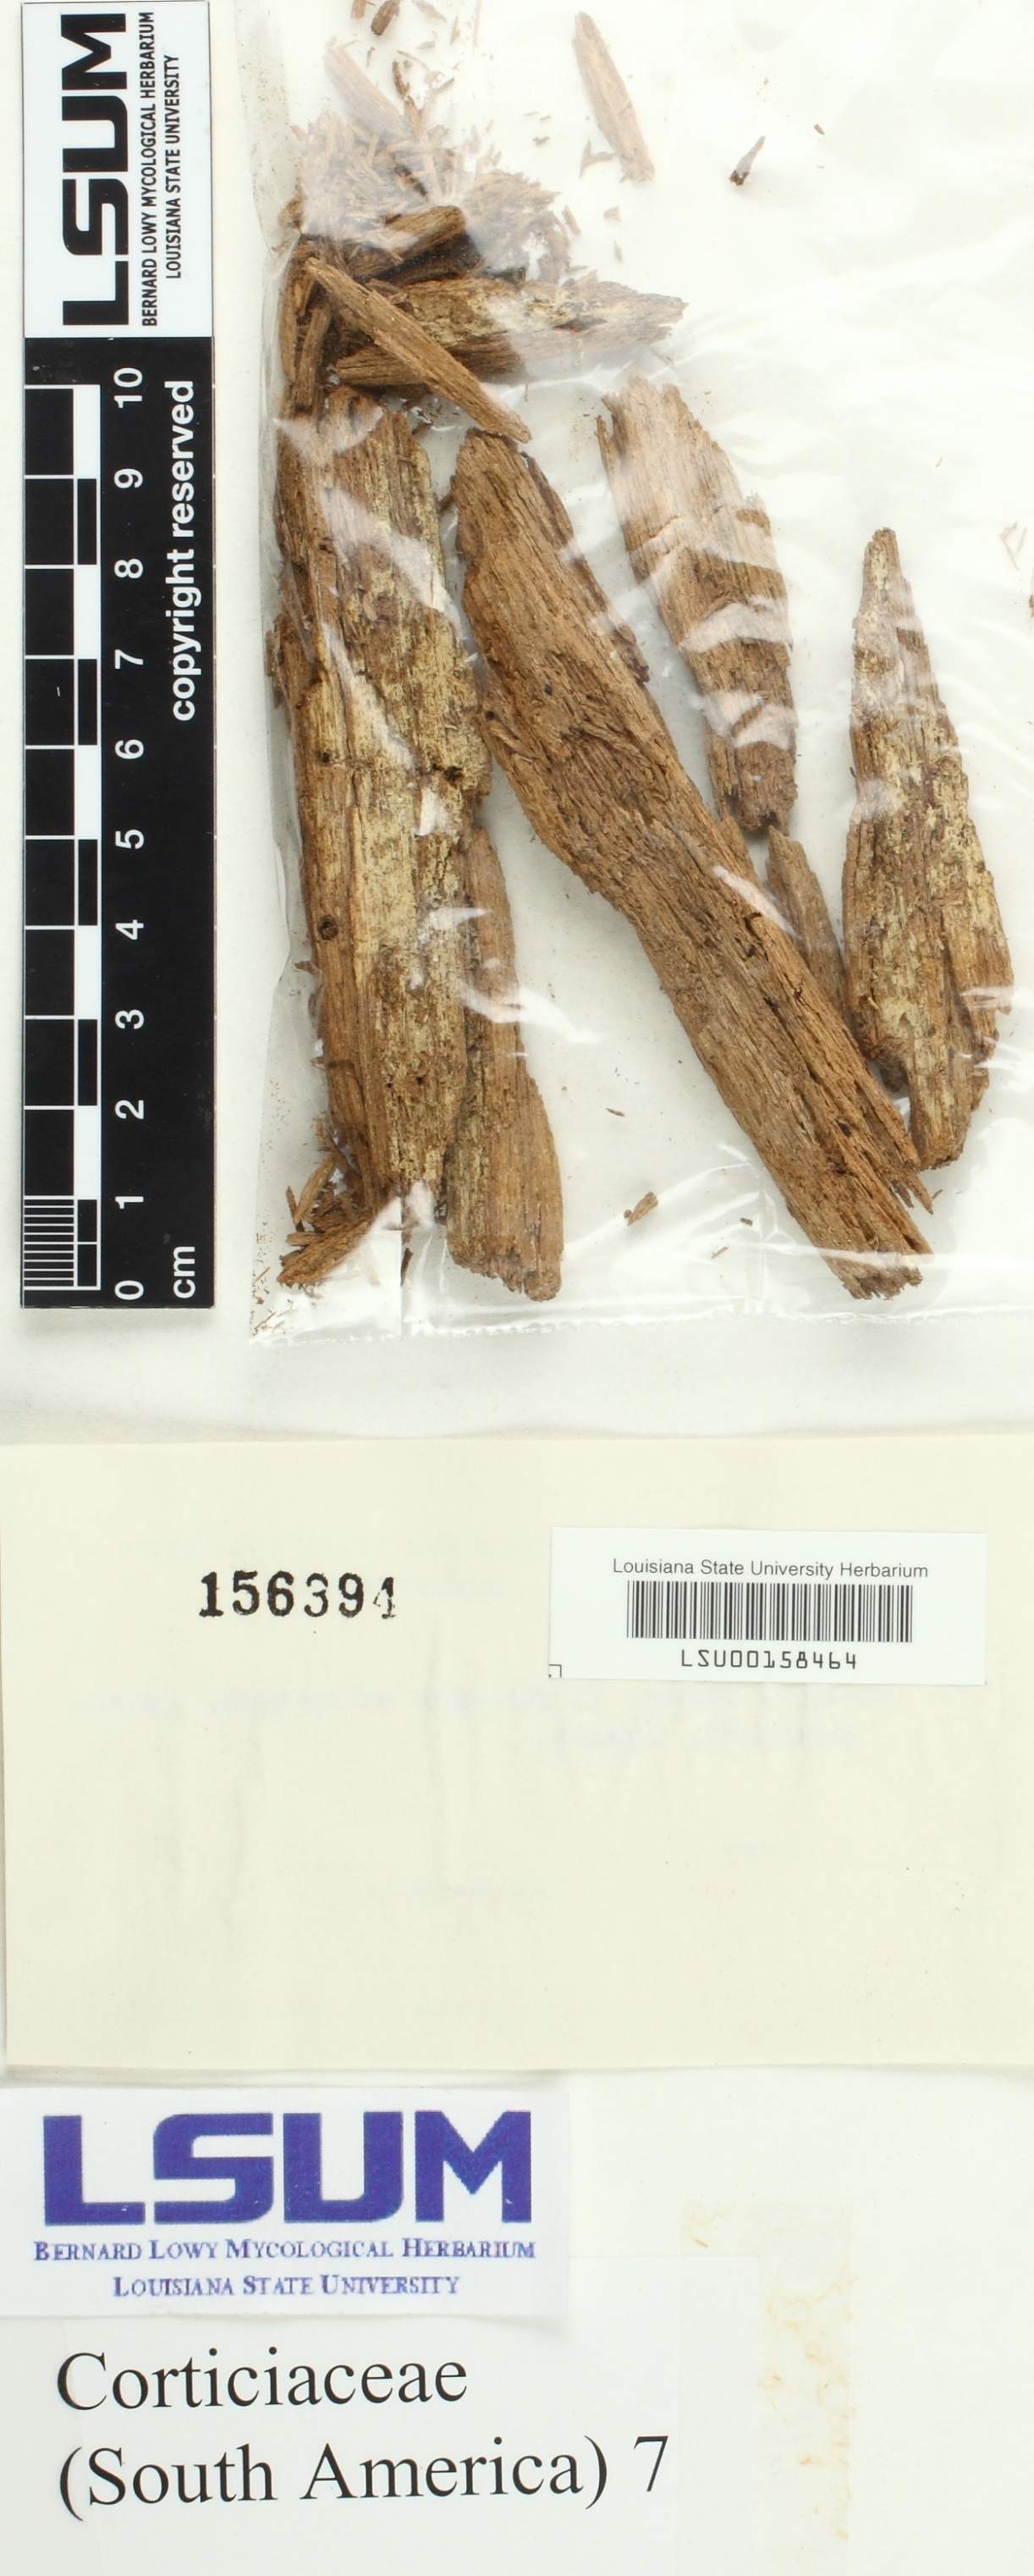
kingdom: Fungi
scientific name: Fungi
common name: Fungi
